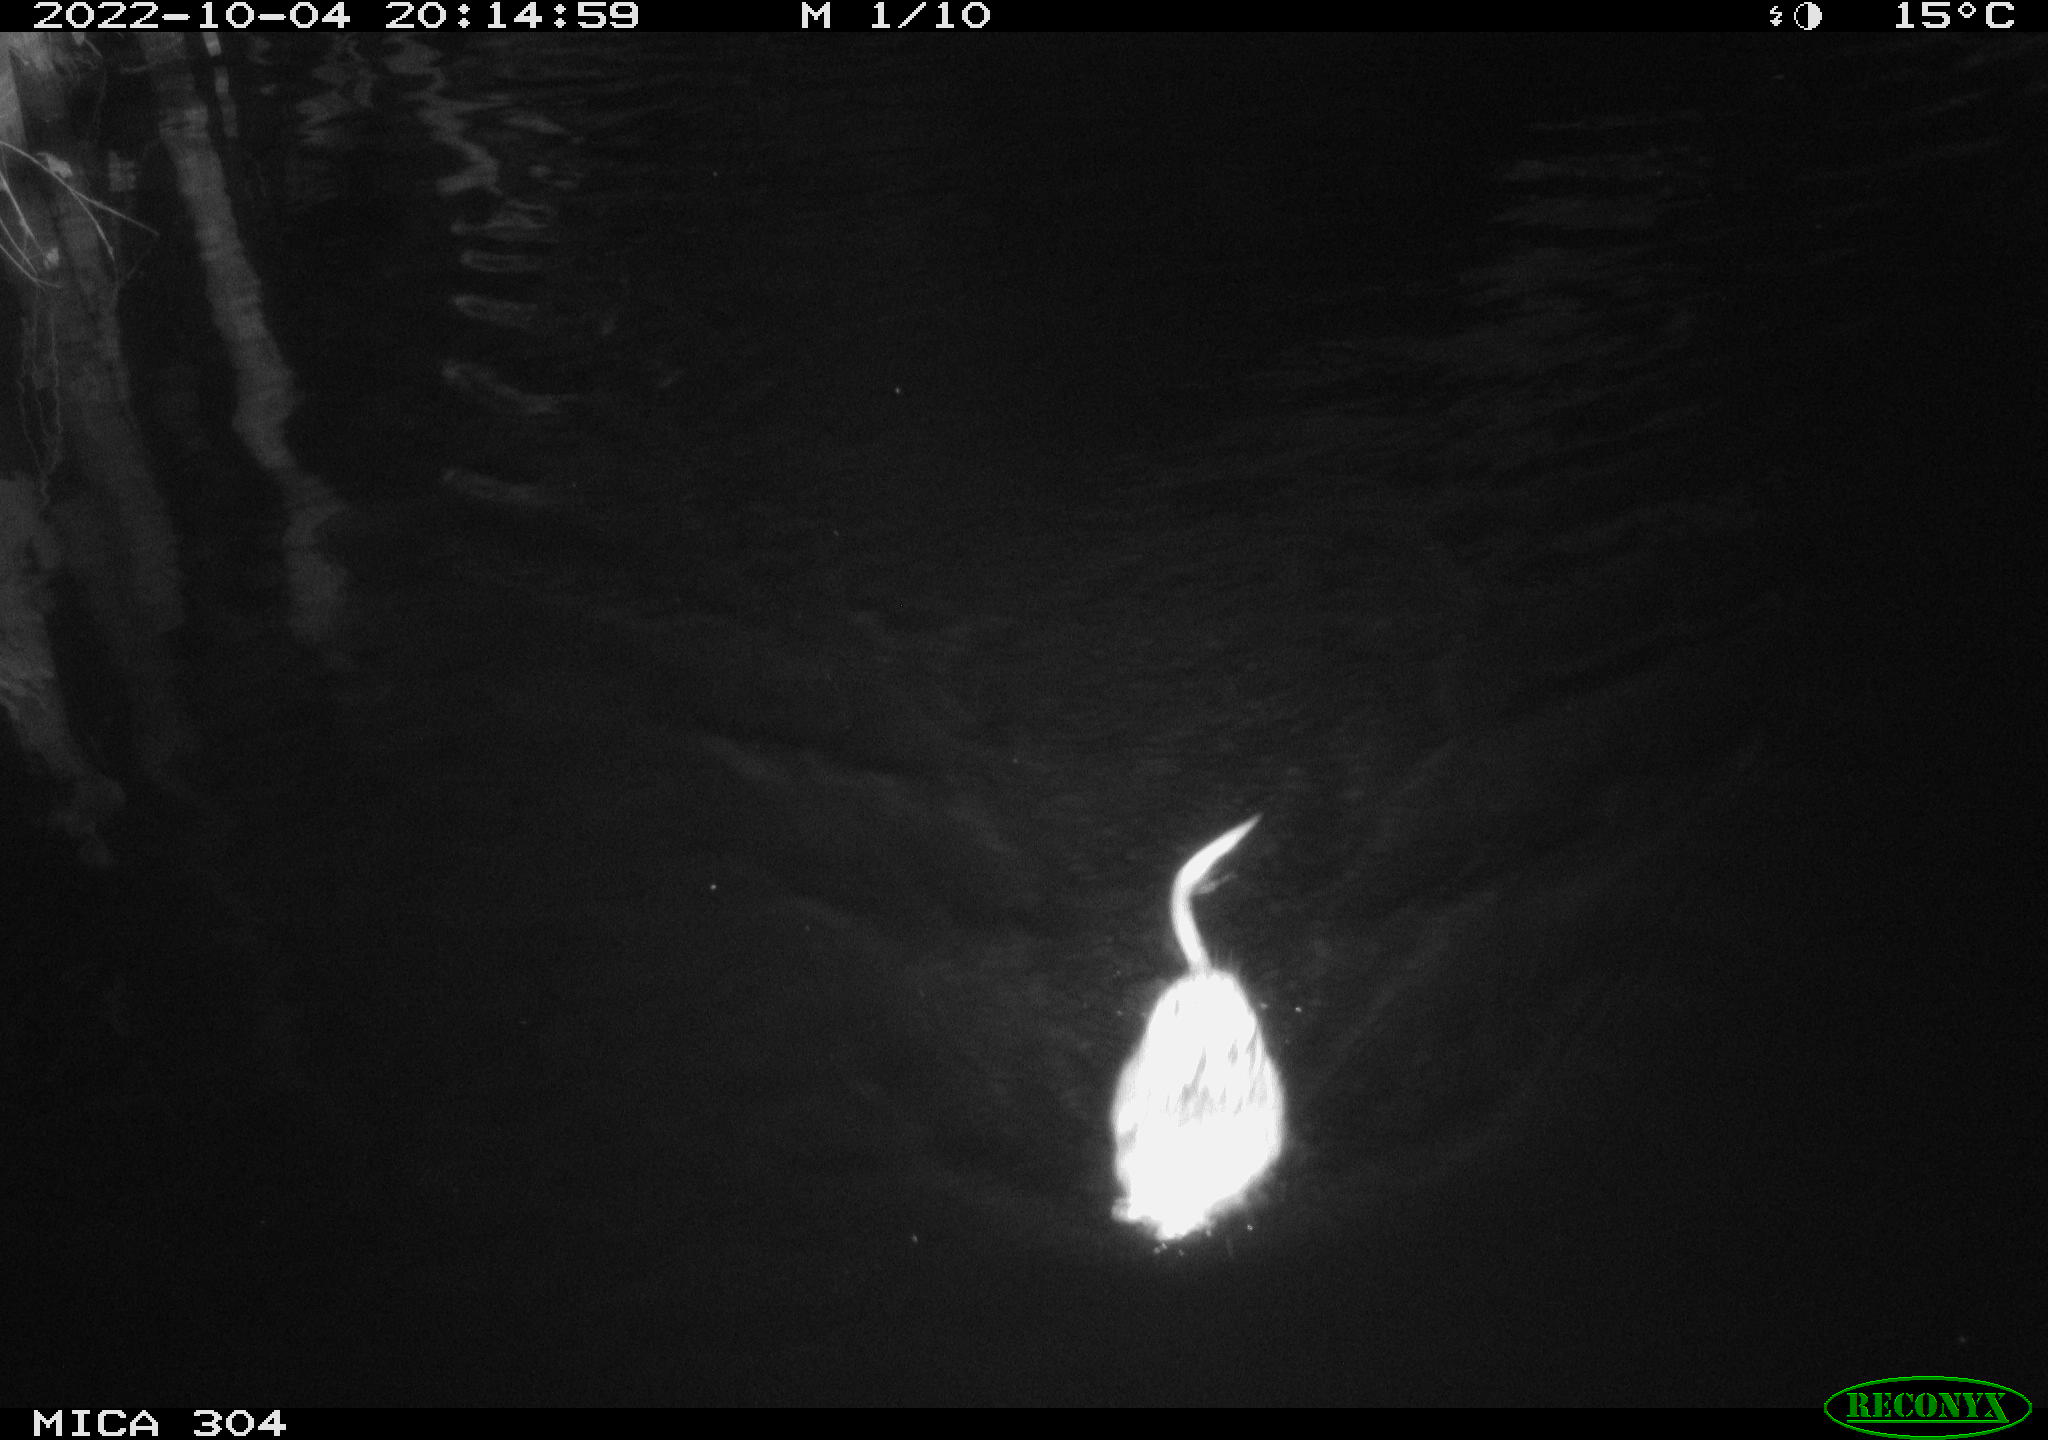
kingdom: Animalia
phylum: Chordata
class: Mammalia
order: Rodentia
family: Cricetidae
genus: Ondatra
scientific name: Ondatra zibethicus
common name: Muskrat
